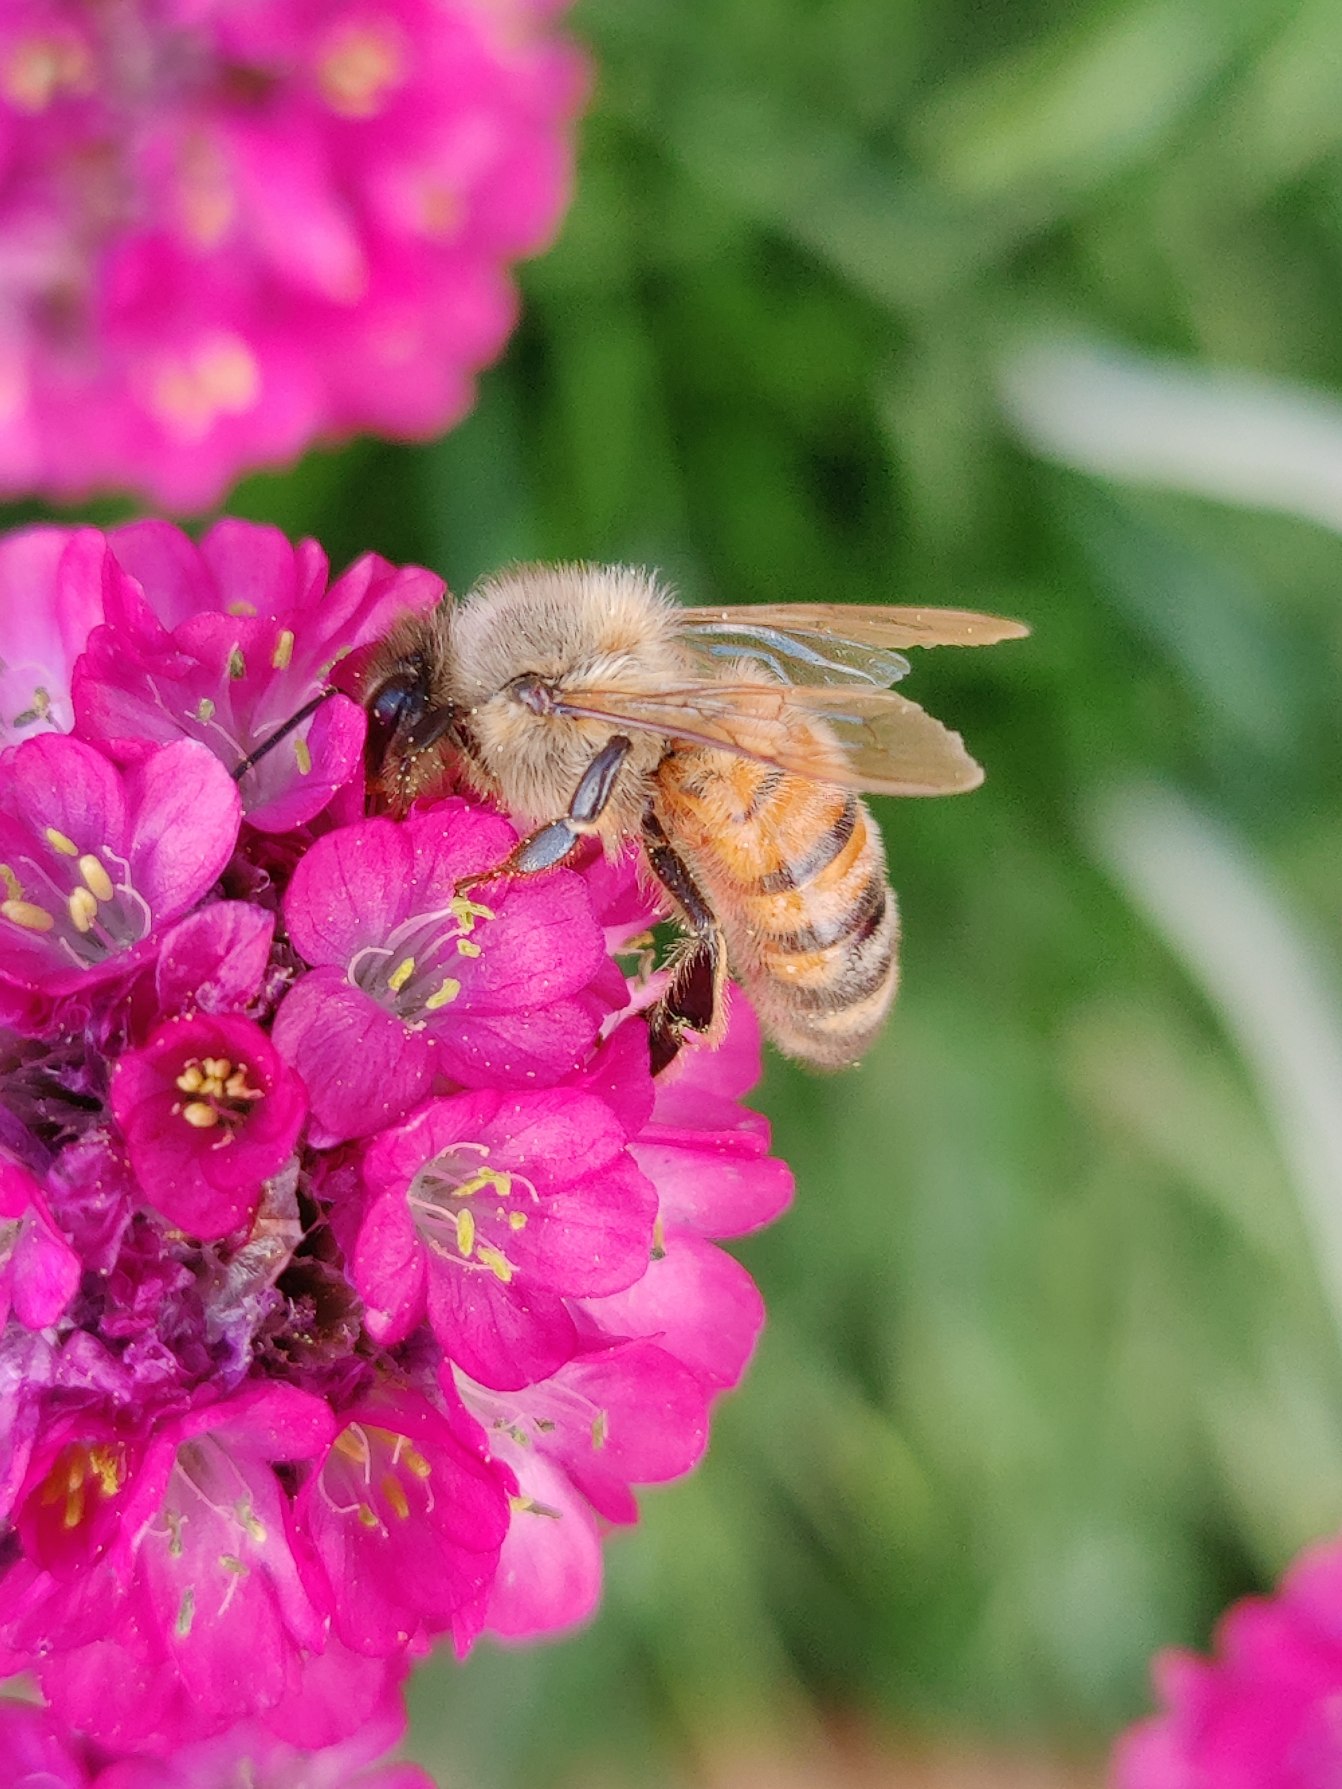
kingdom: Animalia
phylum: Arthropoda
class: Insecta
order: Hymenoptera
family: Apidae
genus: Apis
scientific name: Apis mellifera
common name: Honningbi
